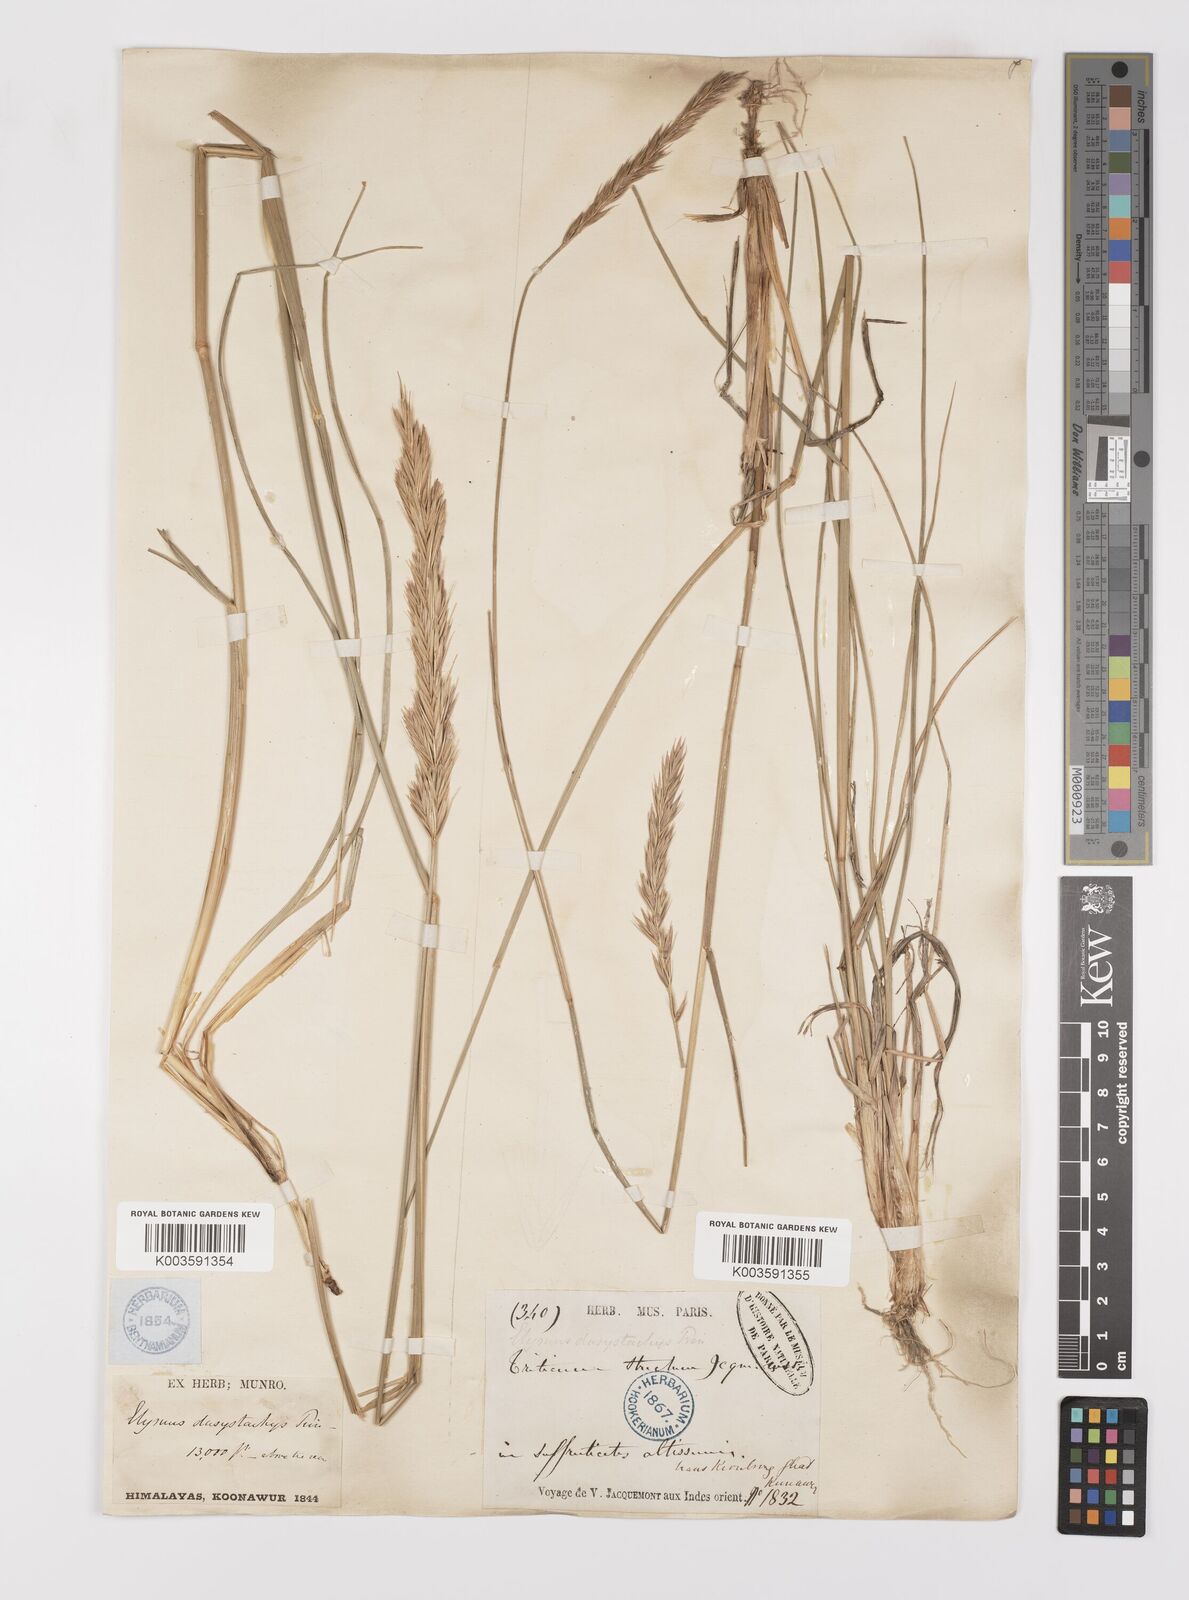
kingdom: Plantae
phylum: Tracheophyta
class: Liliopsida
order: Poales
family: Poaceae
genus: Leymus
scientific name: Leymus secalinus
